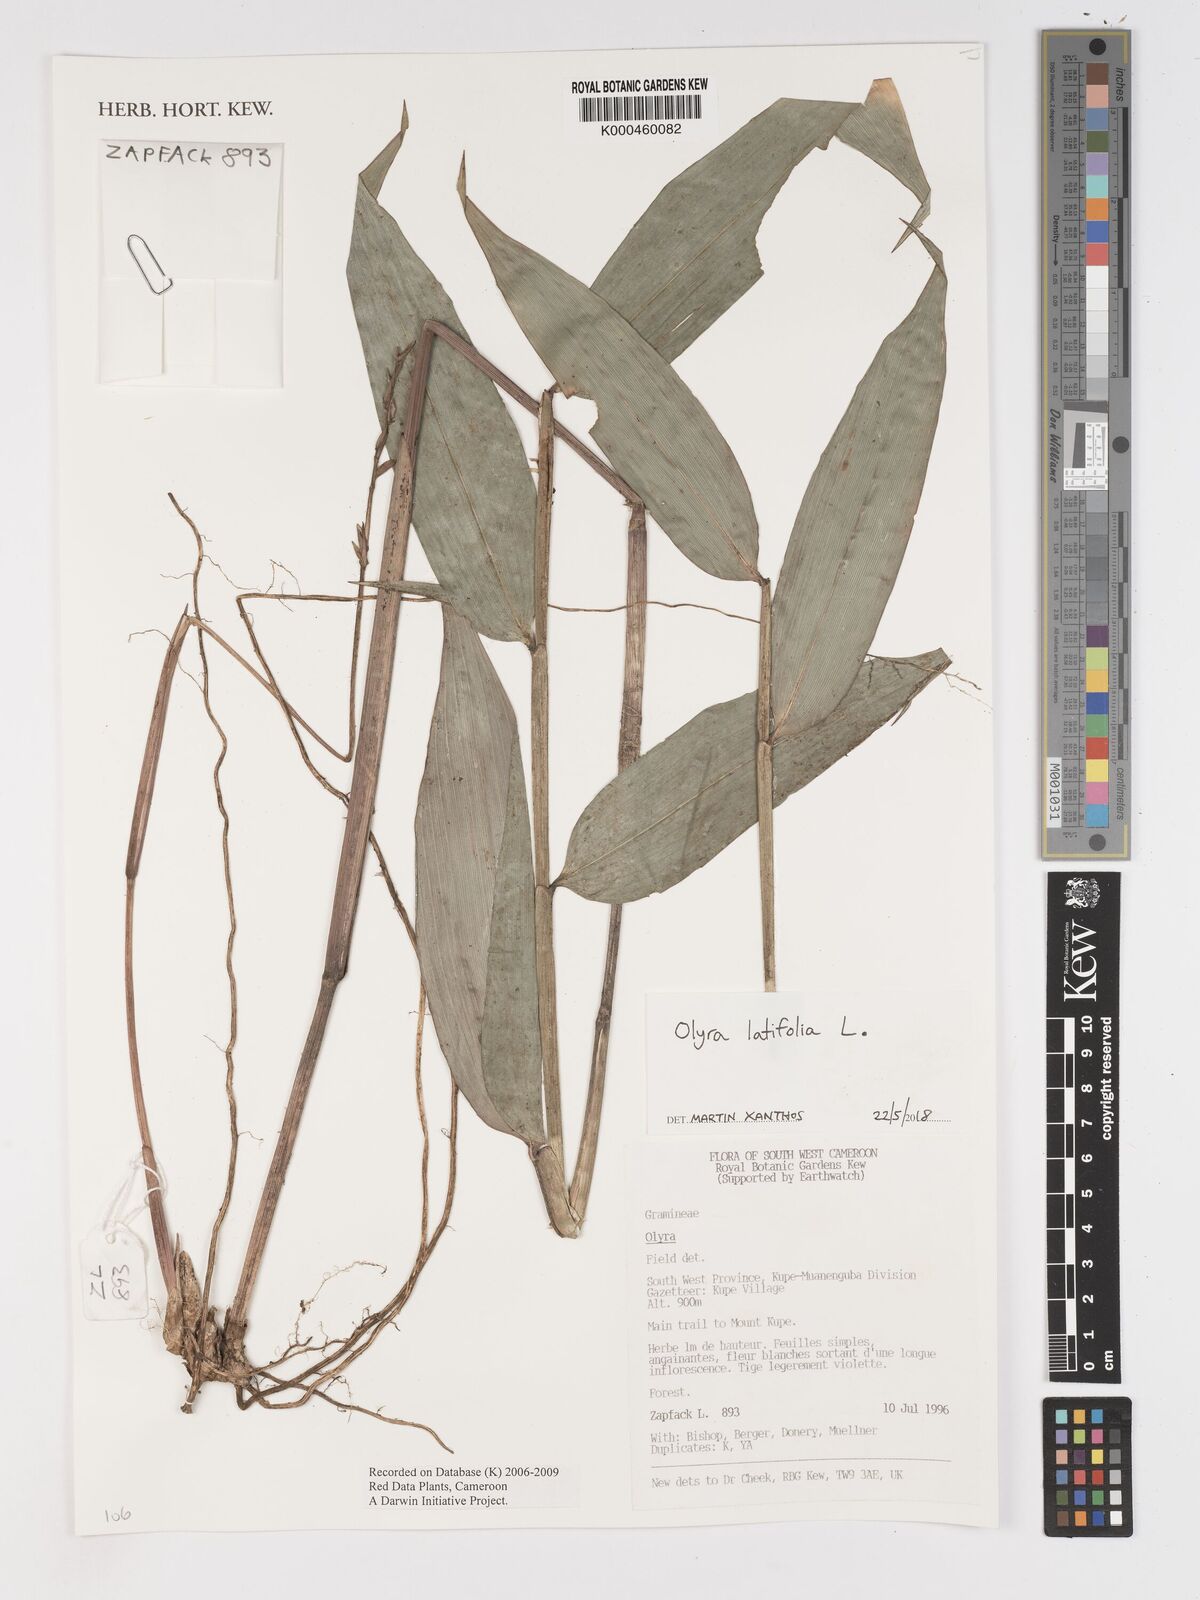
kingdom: Plantae
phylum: Tracheophyta
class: Liliopsida
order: Poales
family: Poaceae
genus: Olyra
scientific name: Olyra
